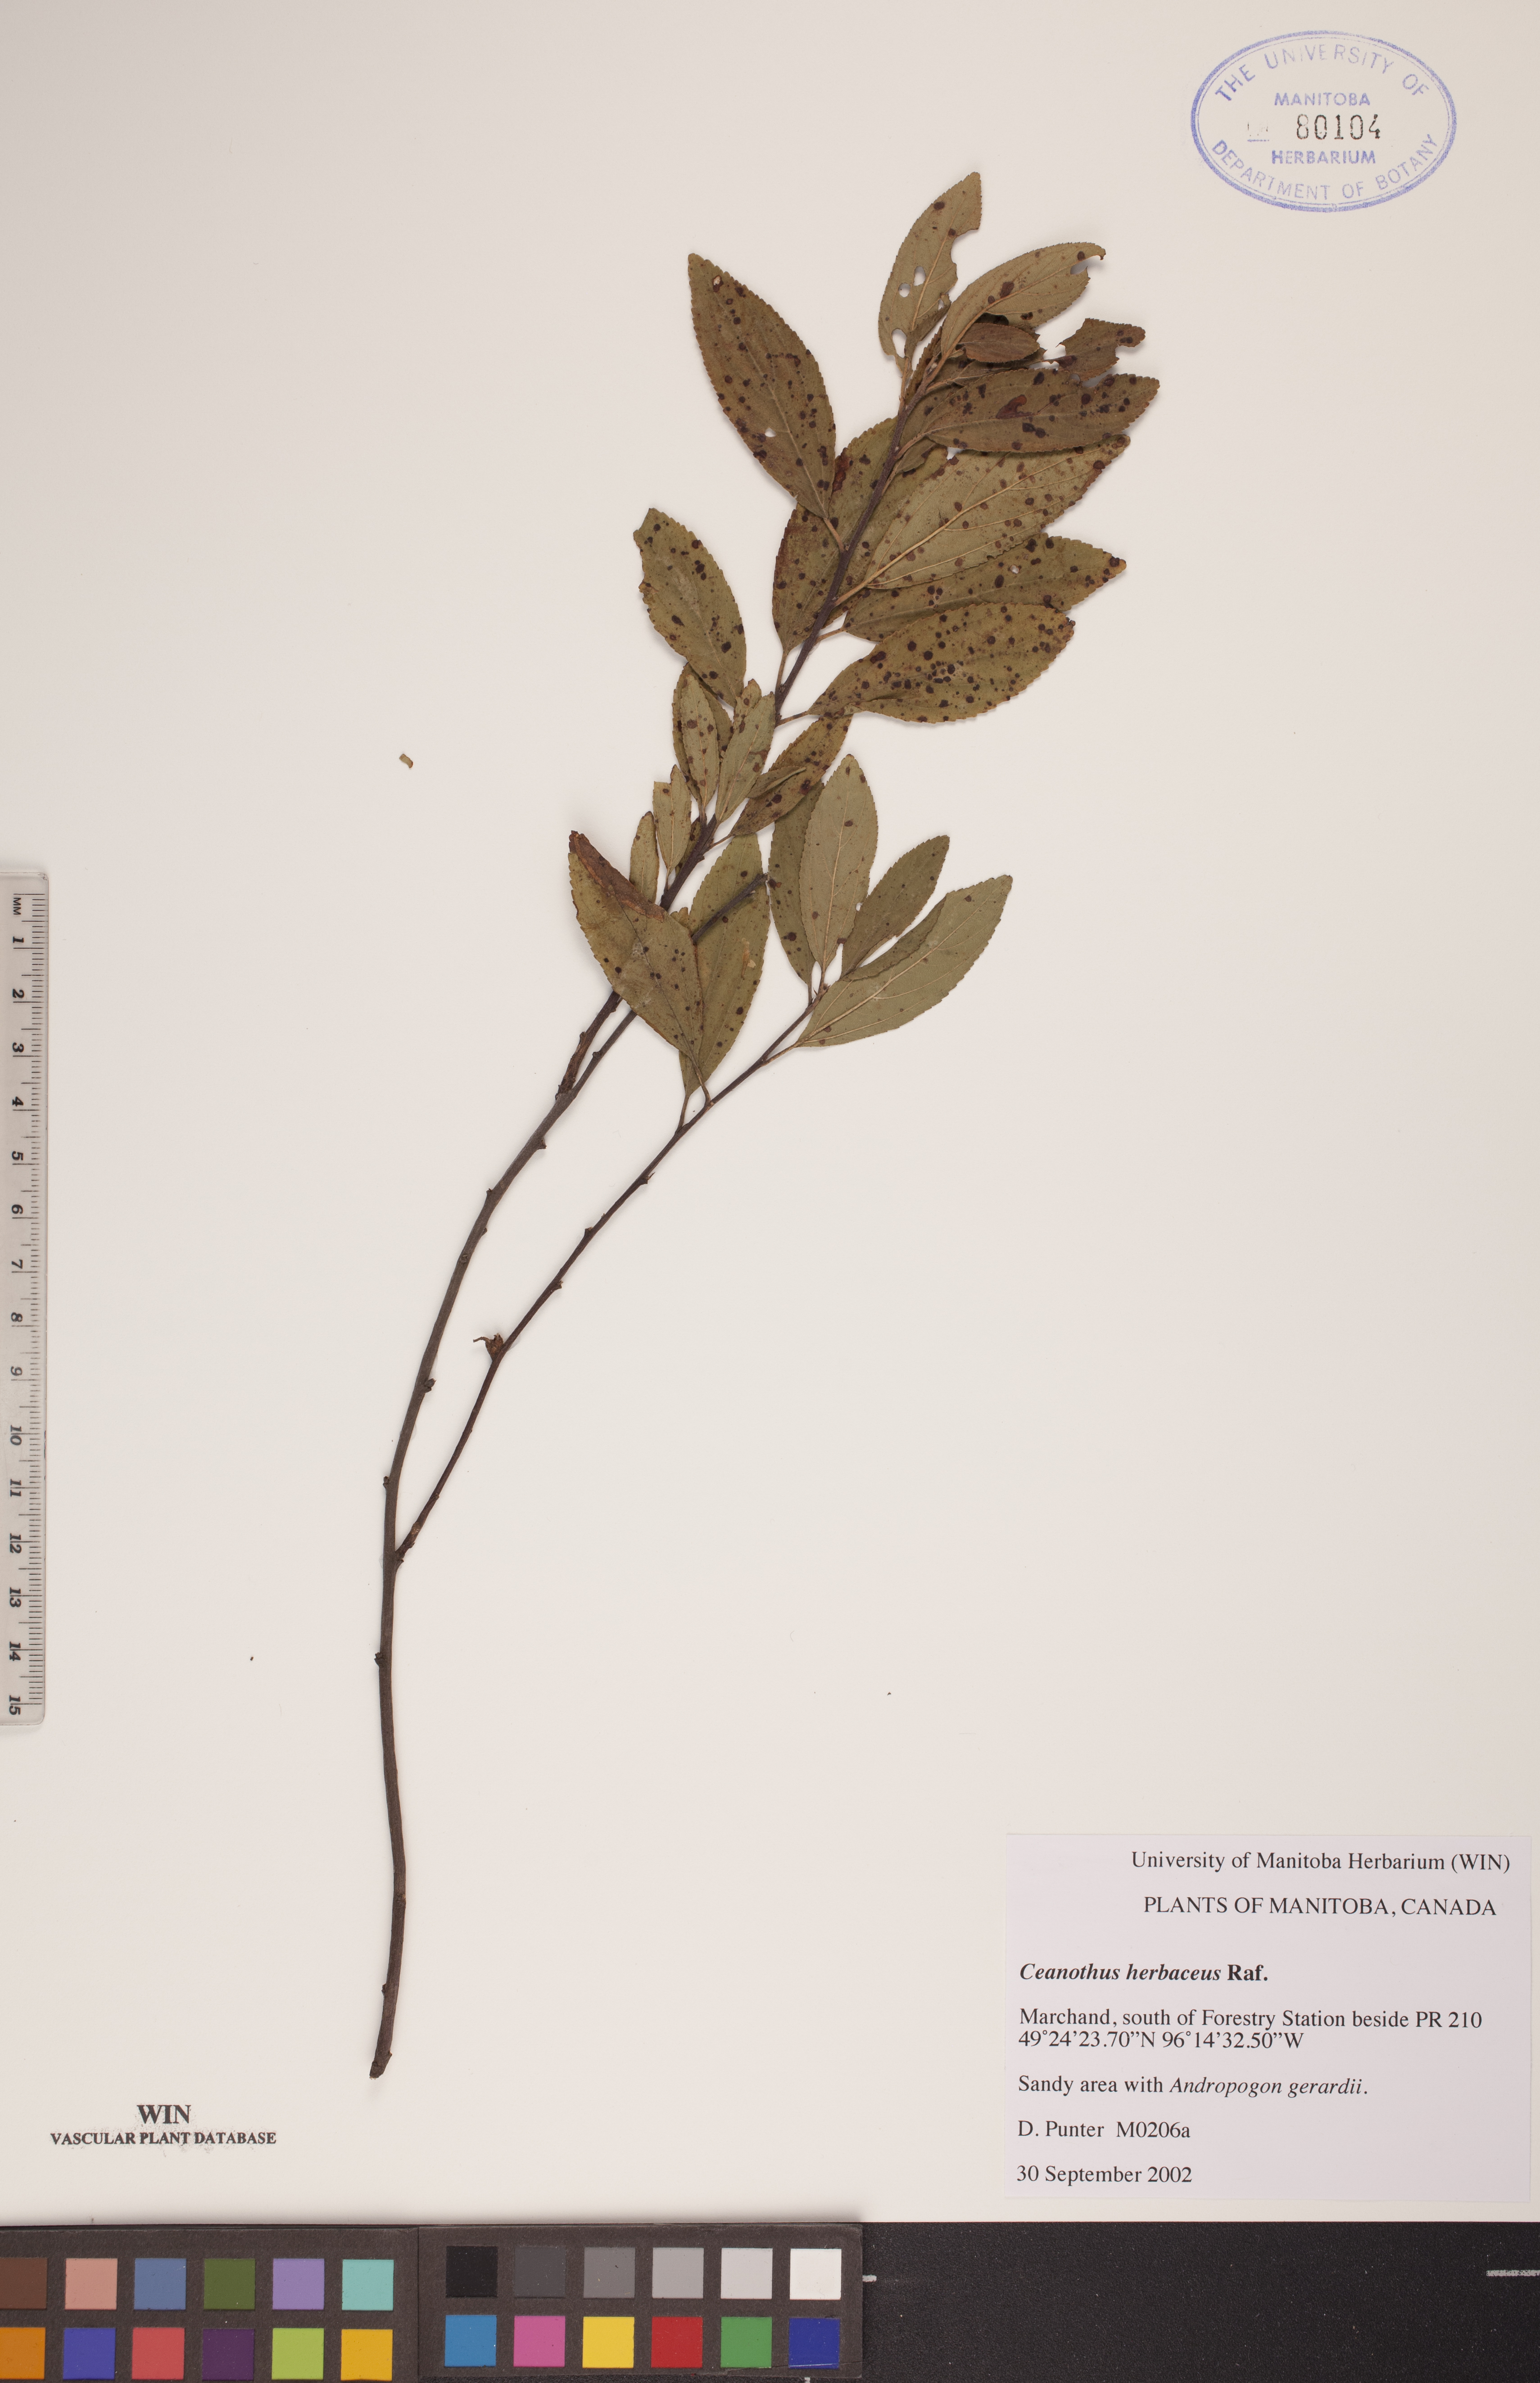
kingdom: Plantae
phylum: Tracheophyta
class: Magnoliopsida
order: Rosales
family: Rhamnaceae
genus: Ceanothus
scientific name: Ceanothus herbaceus
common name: Inland ceanothus
